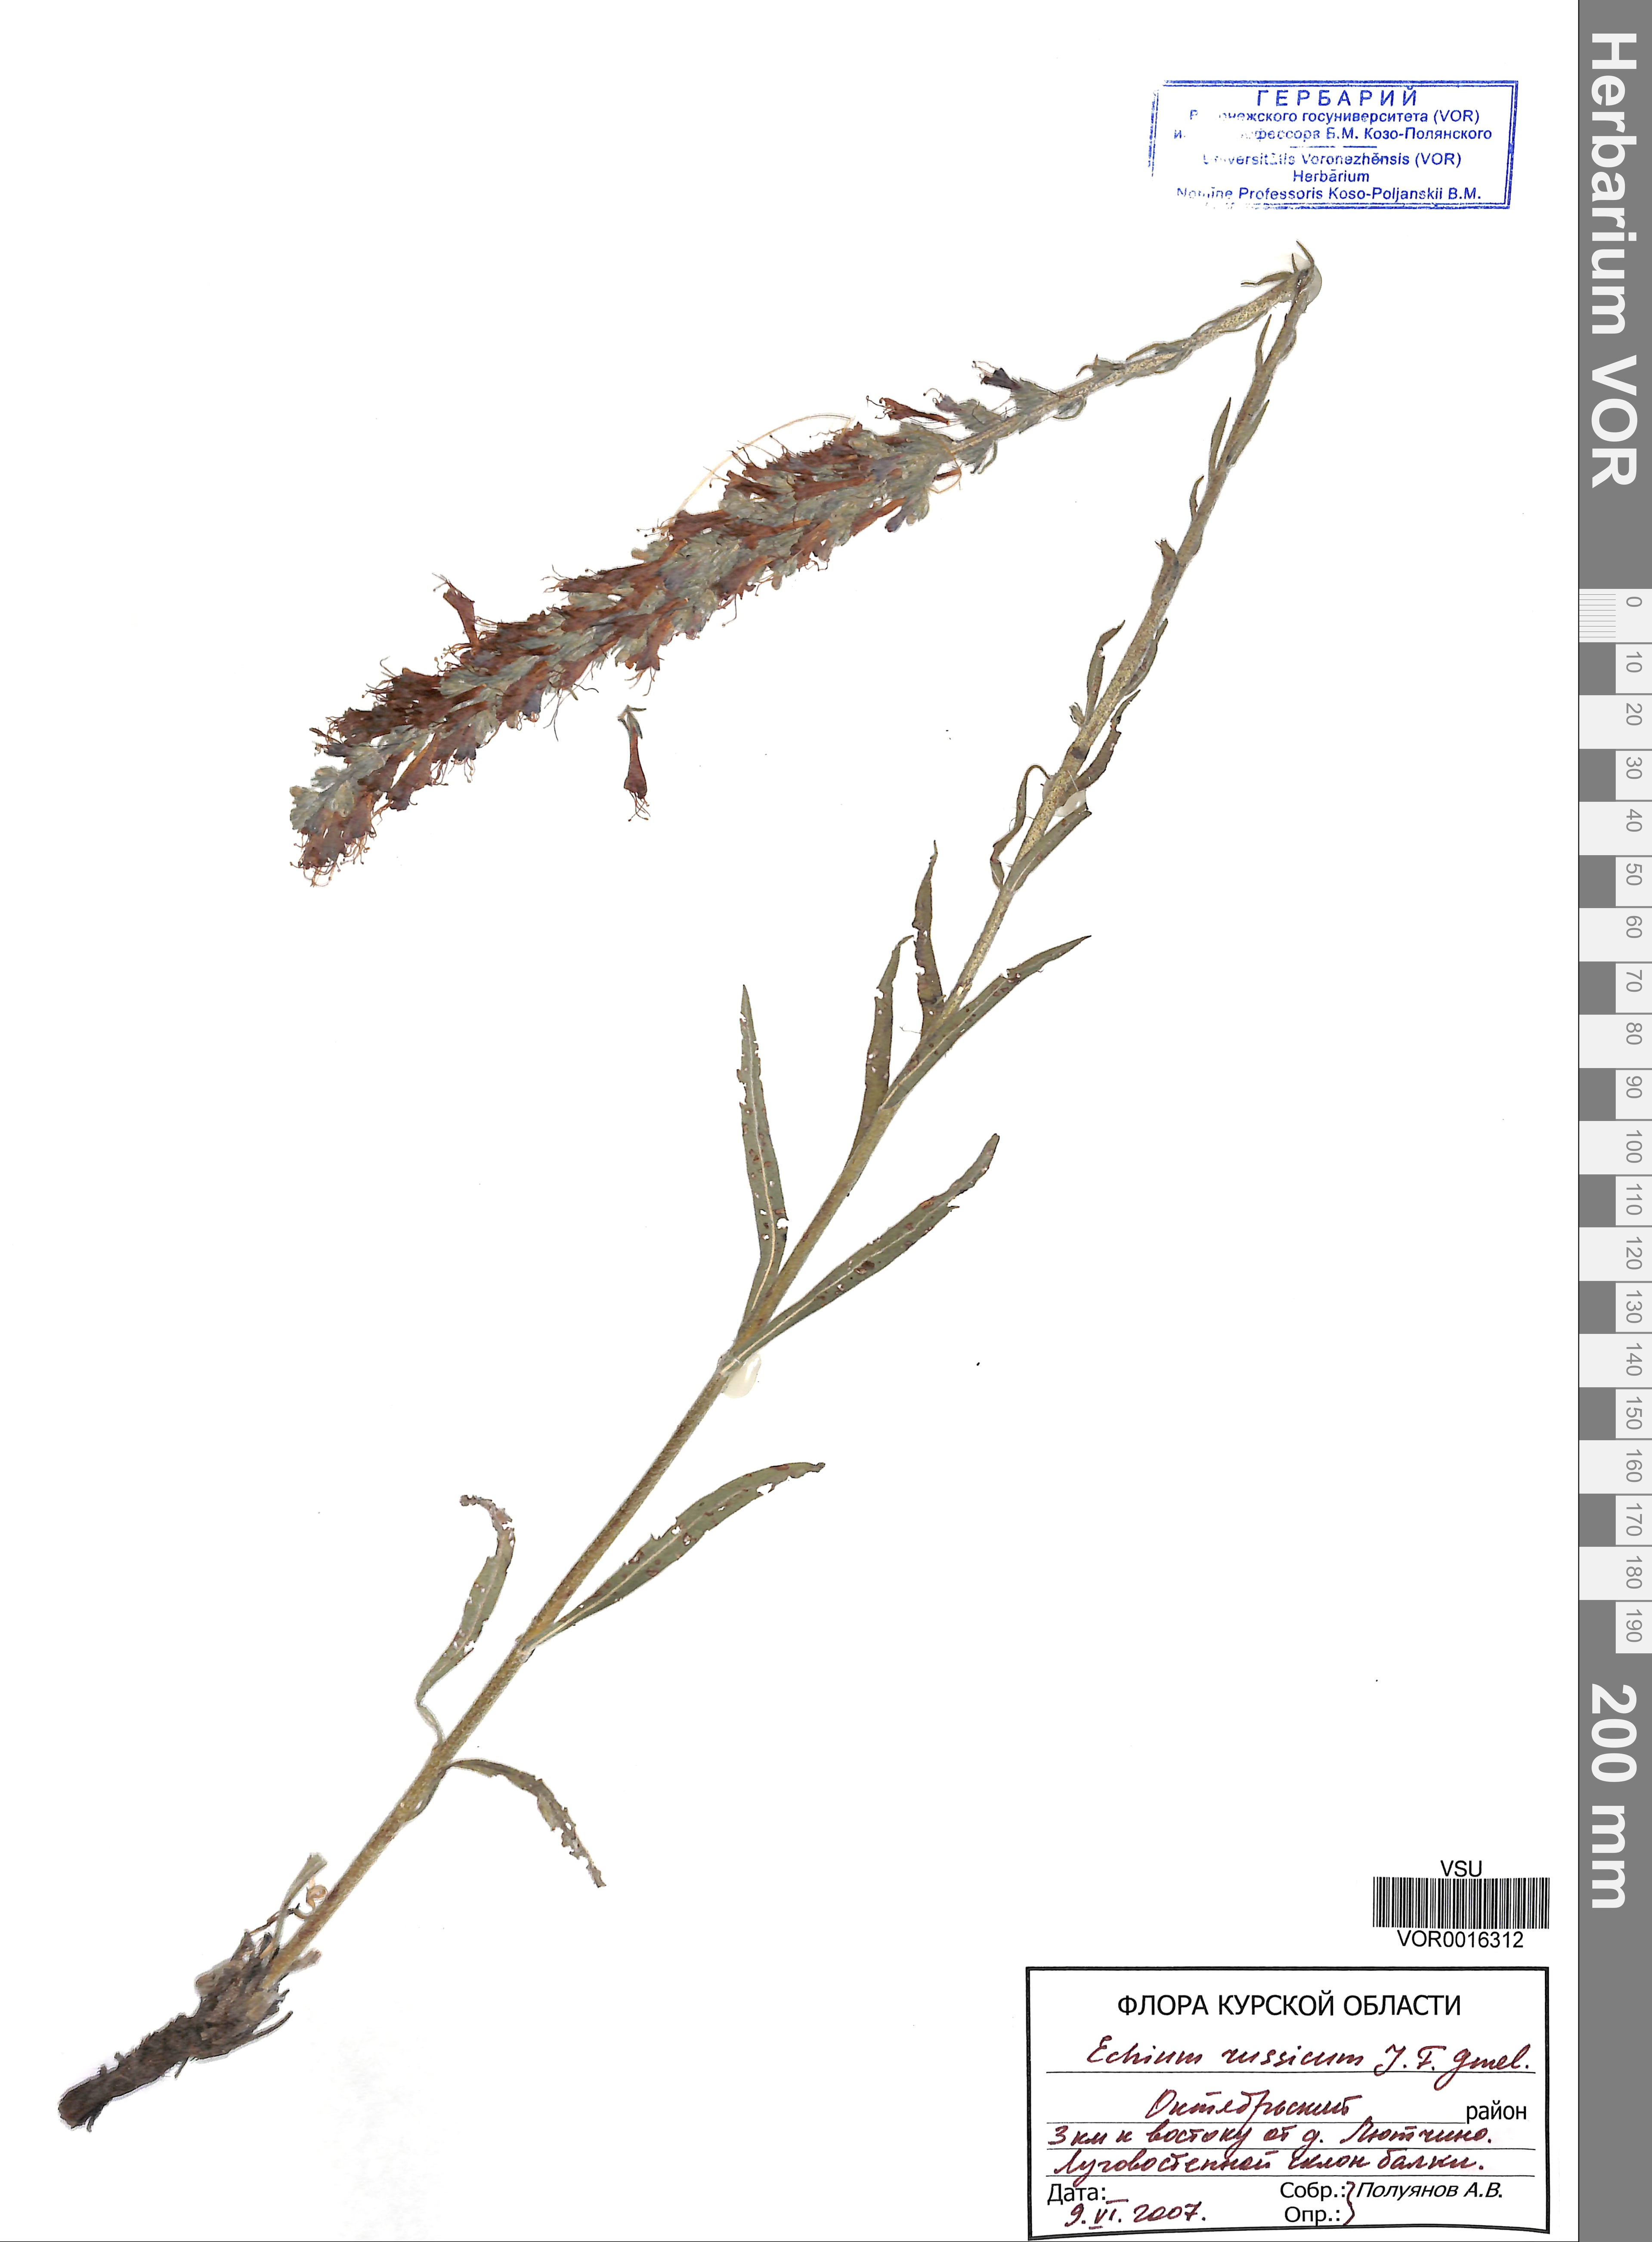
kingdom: Plantae
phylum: Tracheophyta
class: Magnoliopsida
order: Boraginales
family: Boraginaceae
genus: Pontechium
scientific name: Pontechium maculatum
